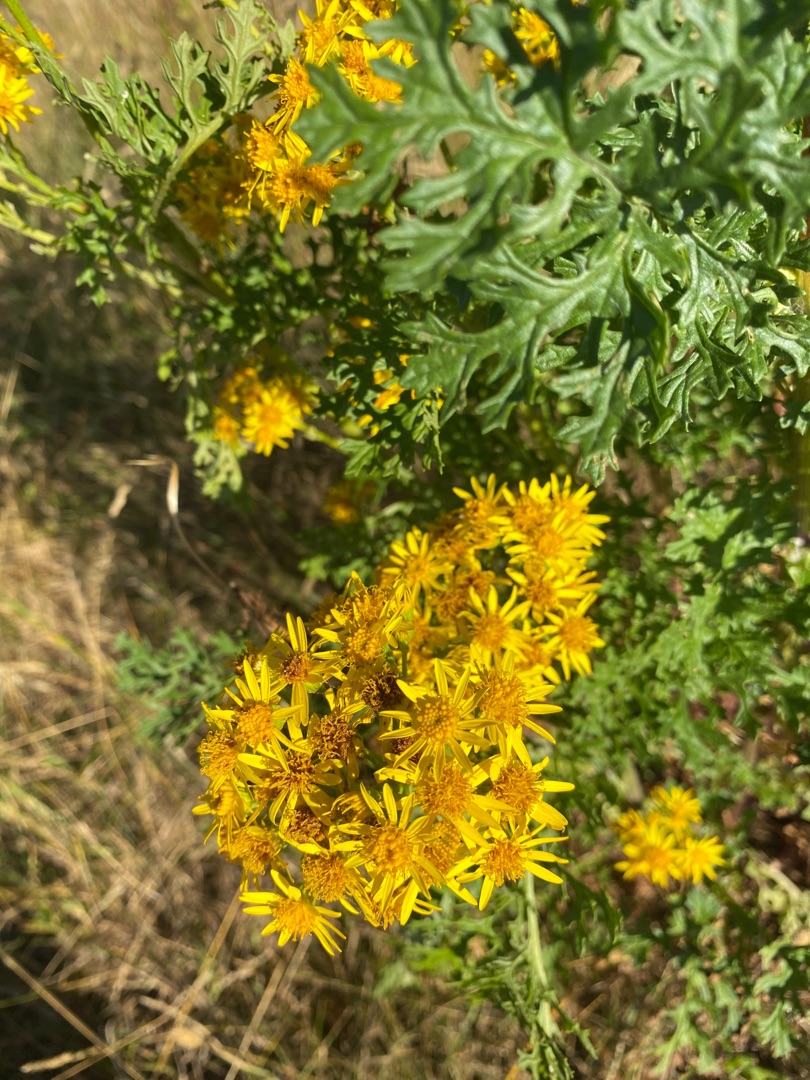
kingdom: Plantae
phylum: Tracheophyta
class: Magnoliopsida
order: Asterales
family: Asteraceae
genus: Jacobaea
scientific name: Jacobaea vulgaris
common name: Eng-brandbæger
